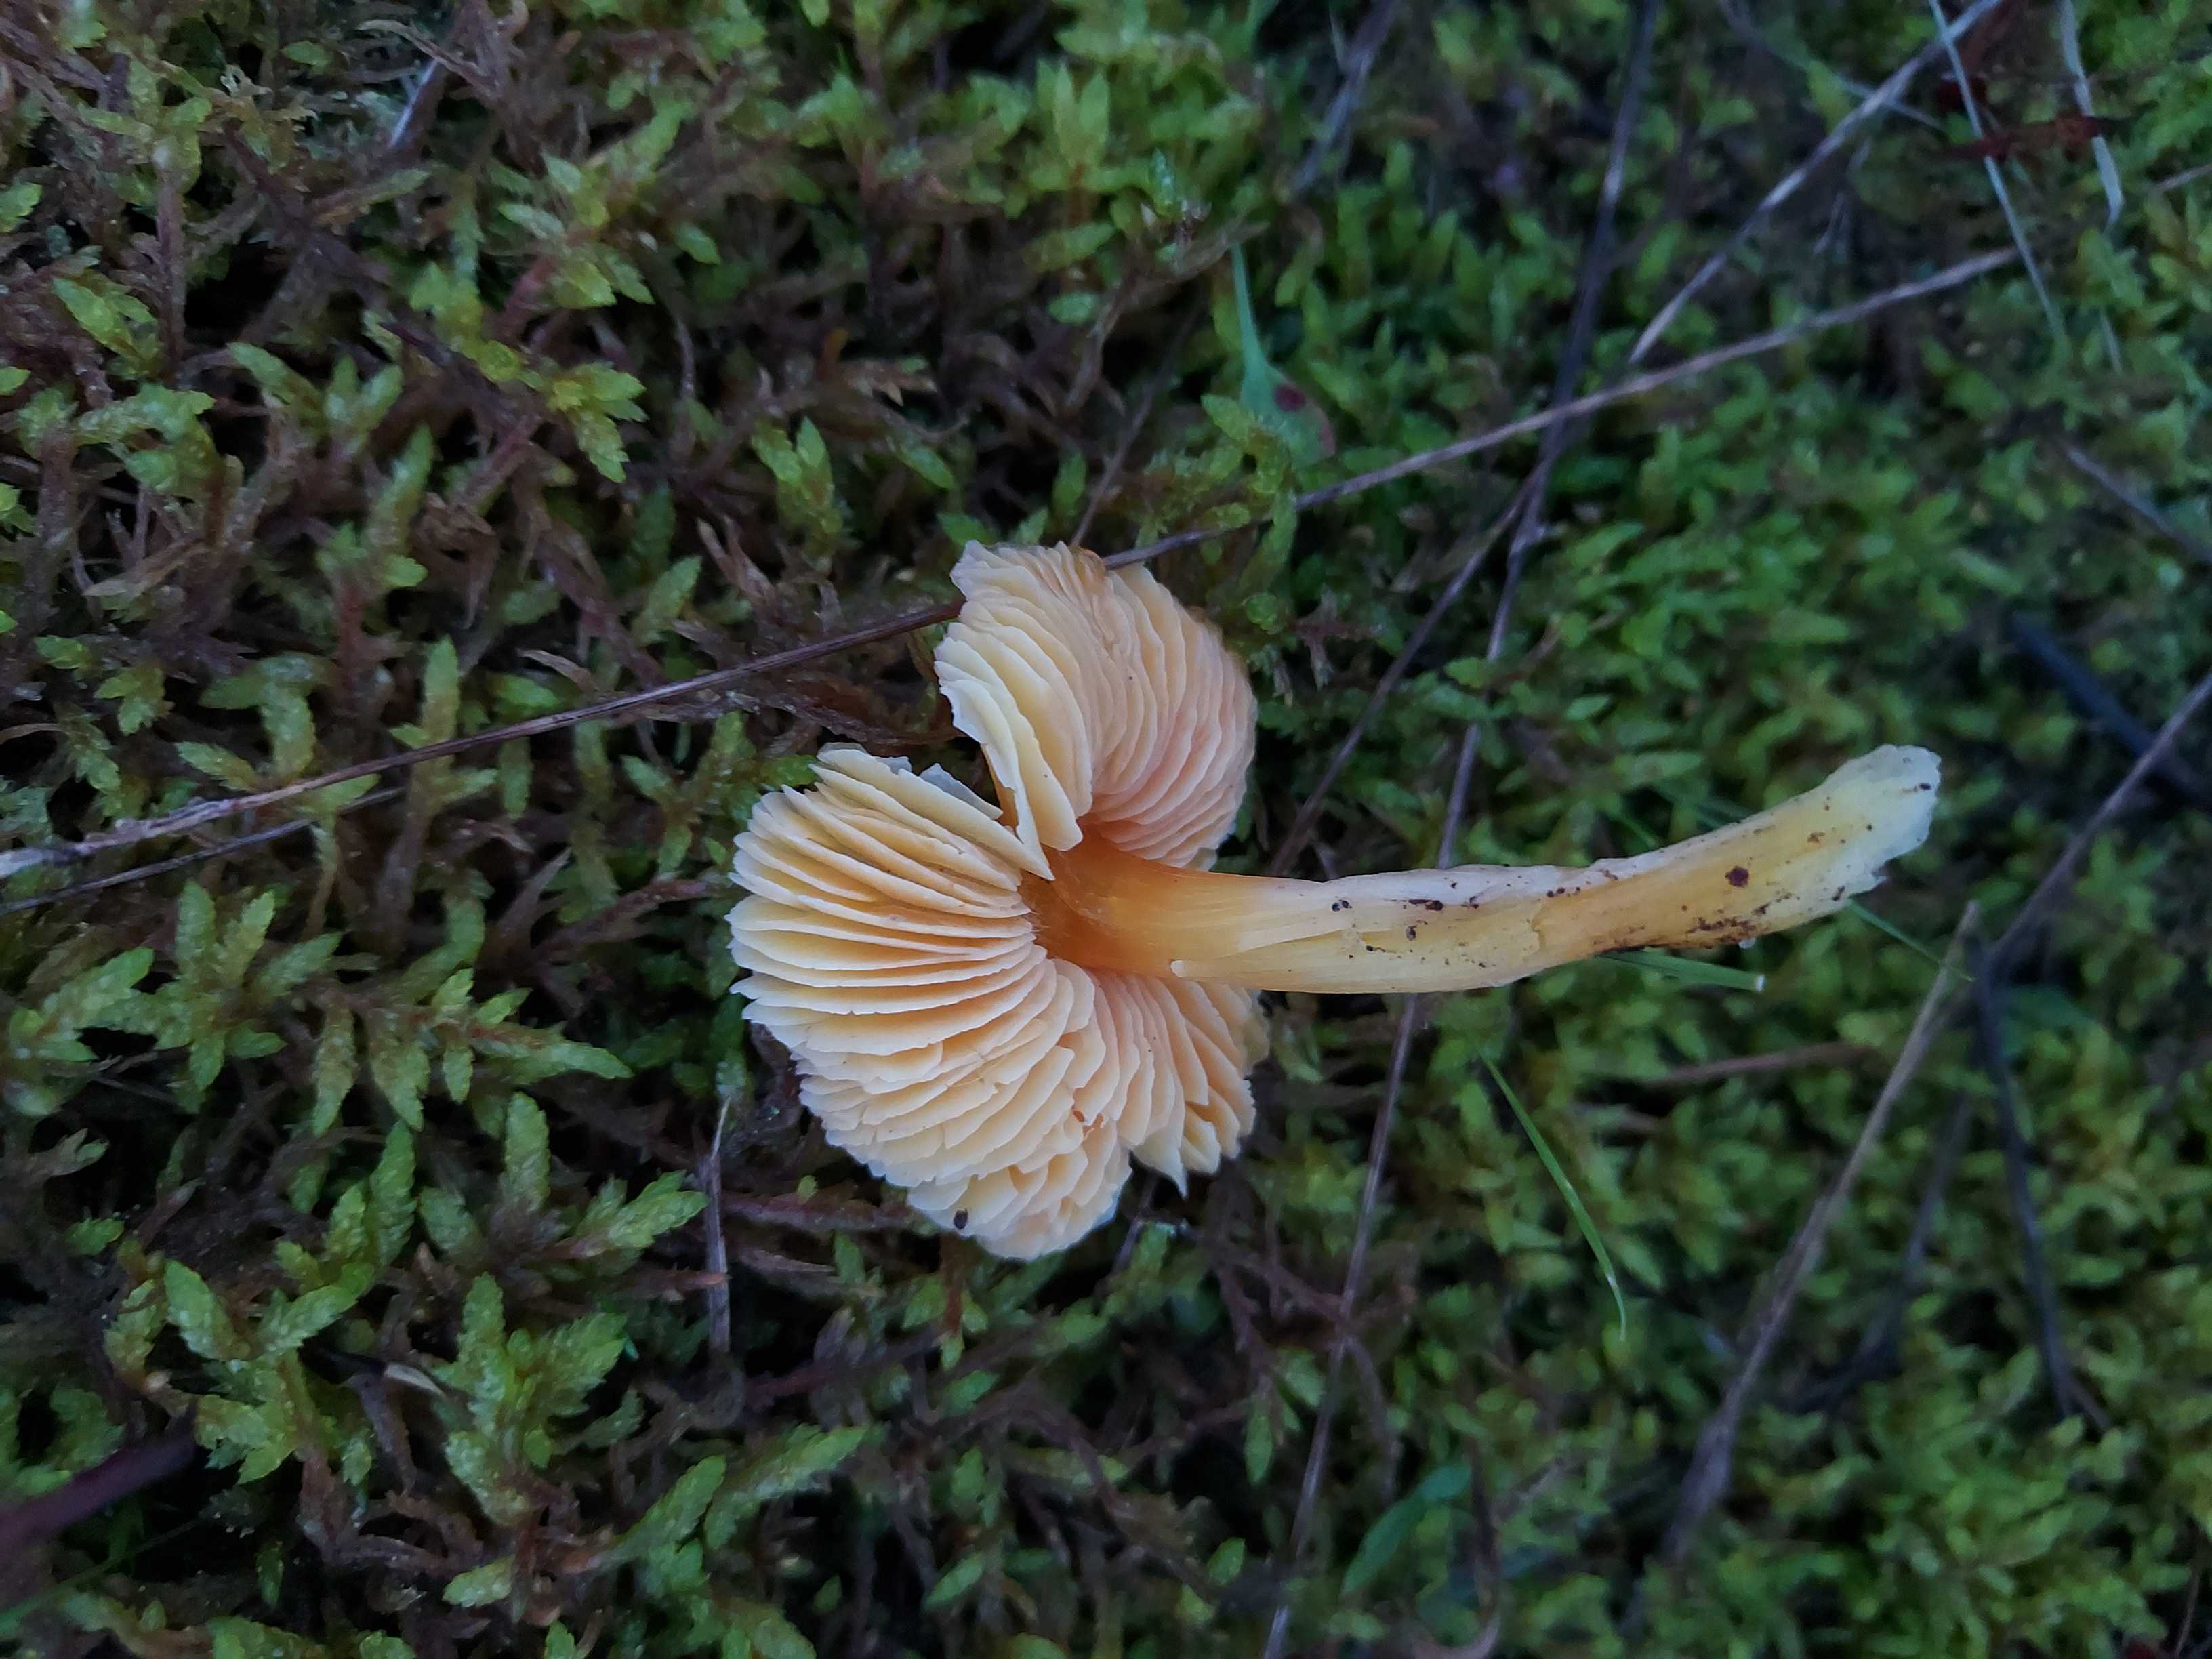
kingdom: Fungi
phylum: Basidiomycota
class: Agaricomycetes
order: Agaricales
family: Hygrophoraceae
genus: Hygrocybe
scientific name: Hygrocybe chlorophana
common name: gul vokshat
